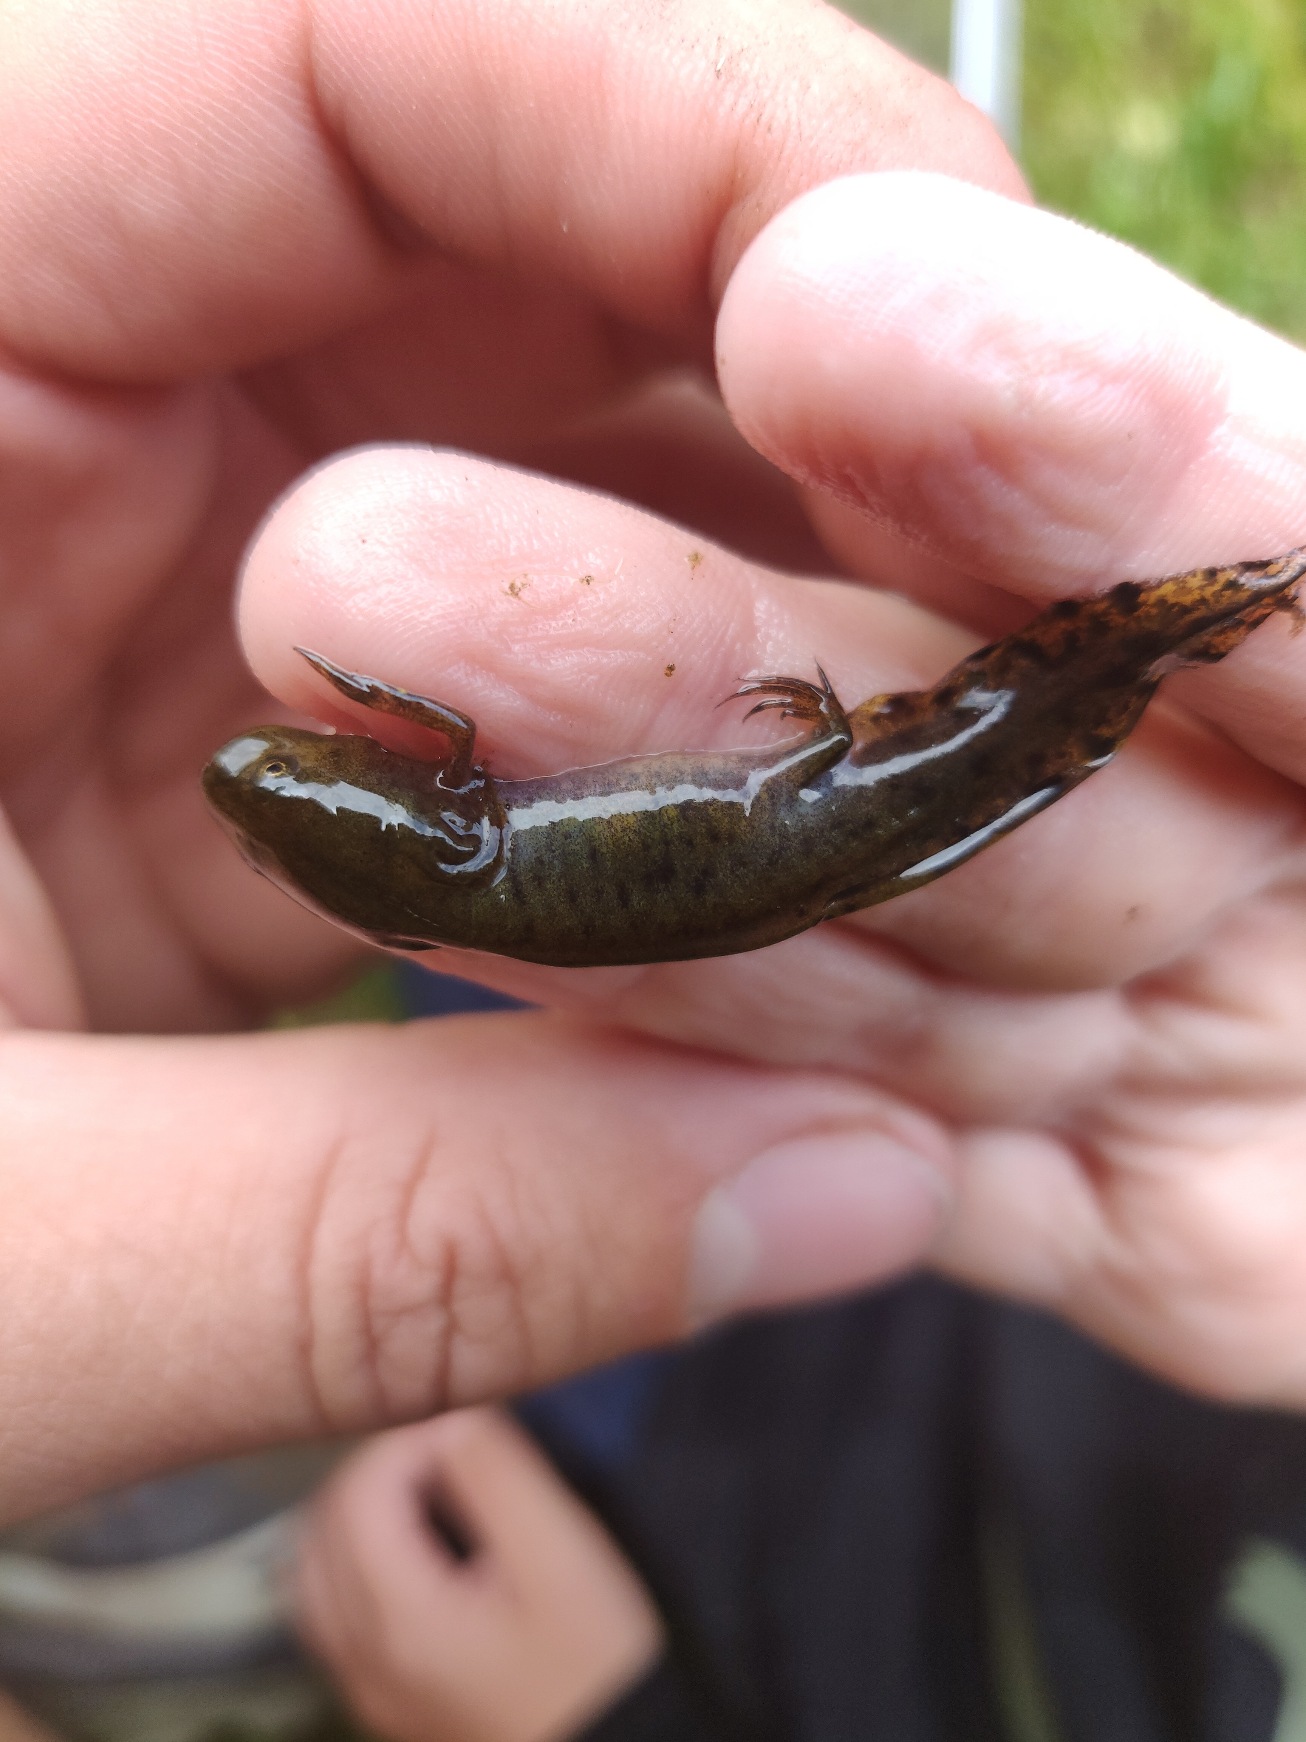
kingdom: Animalia
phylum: Chordata
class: Amphibia
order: Caudata
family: Salamandridae
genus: Triturus
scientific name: Triturus cristatus
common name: Stor vandsalamander
